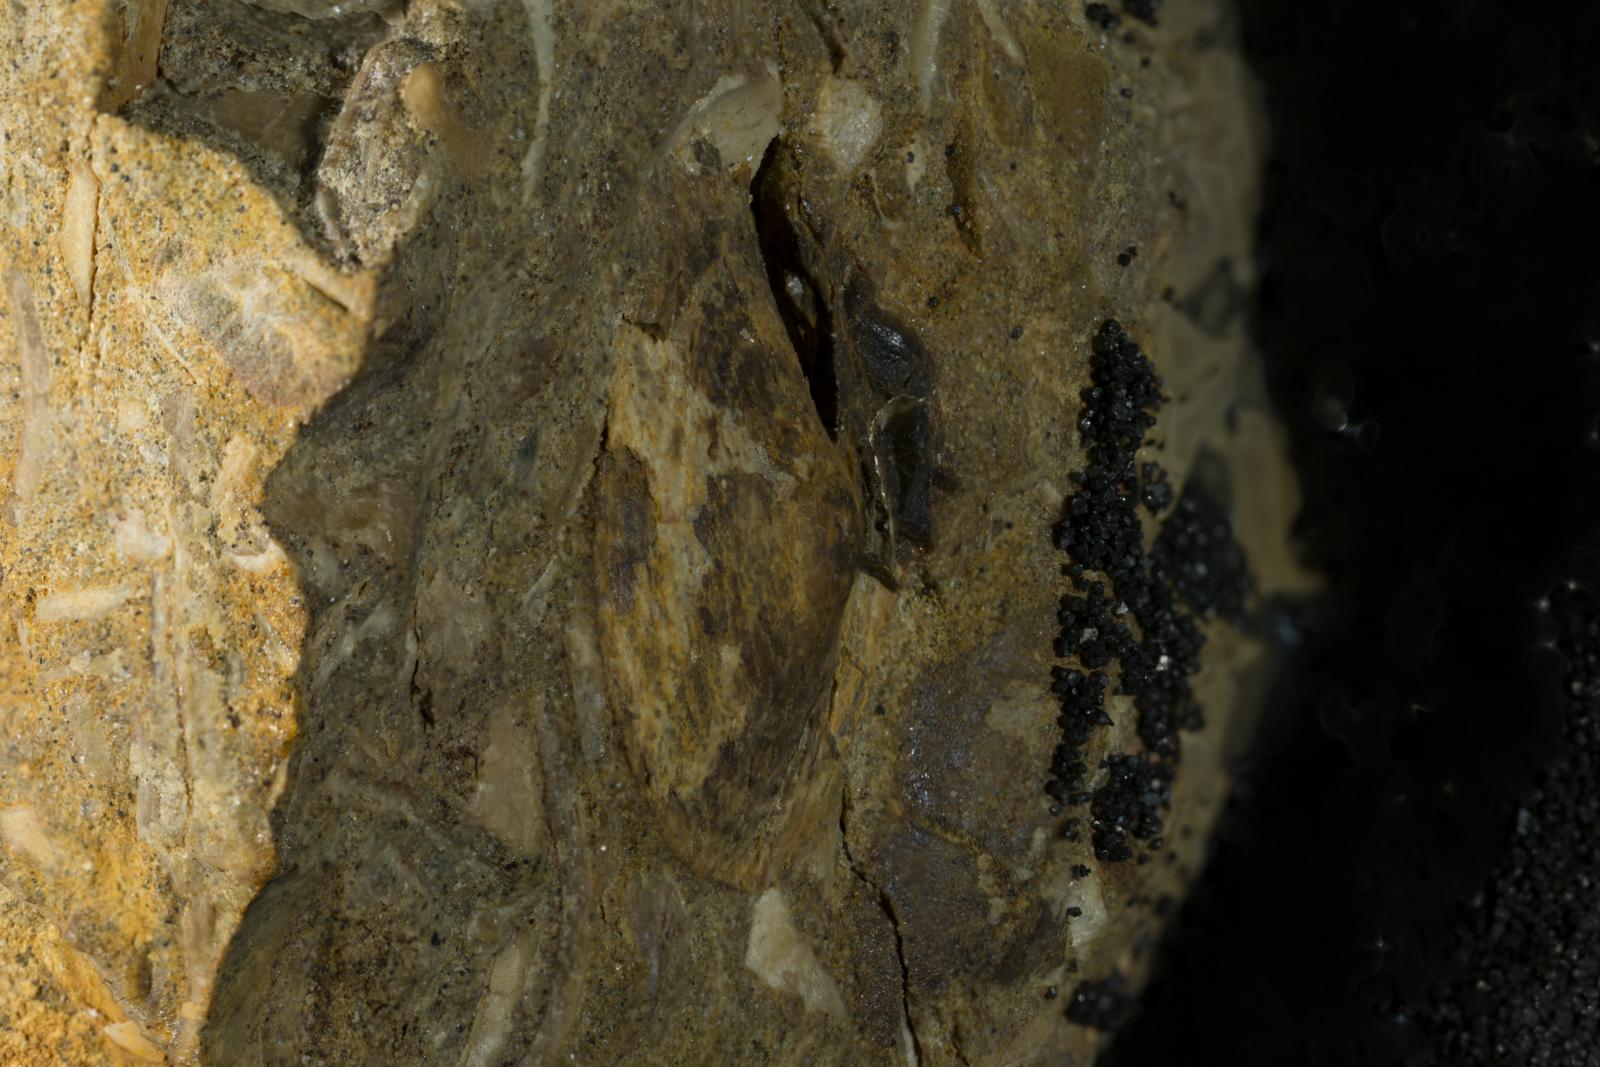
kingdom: Animalia
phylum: Mollusca
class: Gastropoda
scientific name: Gastropoda
